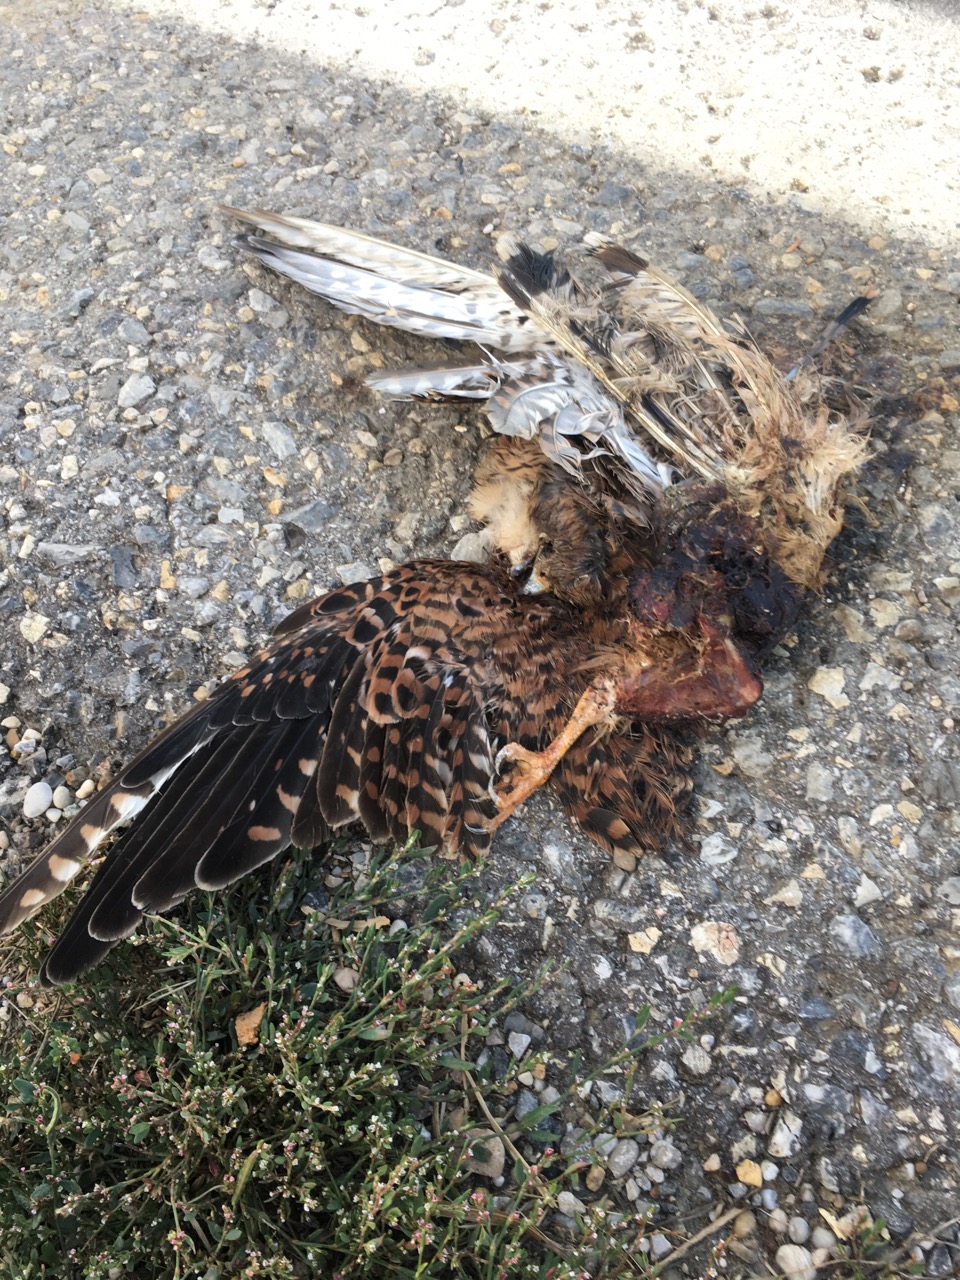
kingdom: Animalia
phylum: Chordata
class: Aves
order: Falconiformes
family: Falconidae
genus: Falco
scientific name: Falco tinnunculus
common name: Common kestrel
